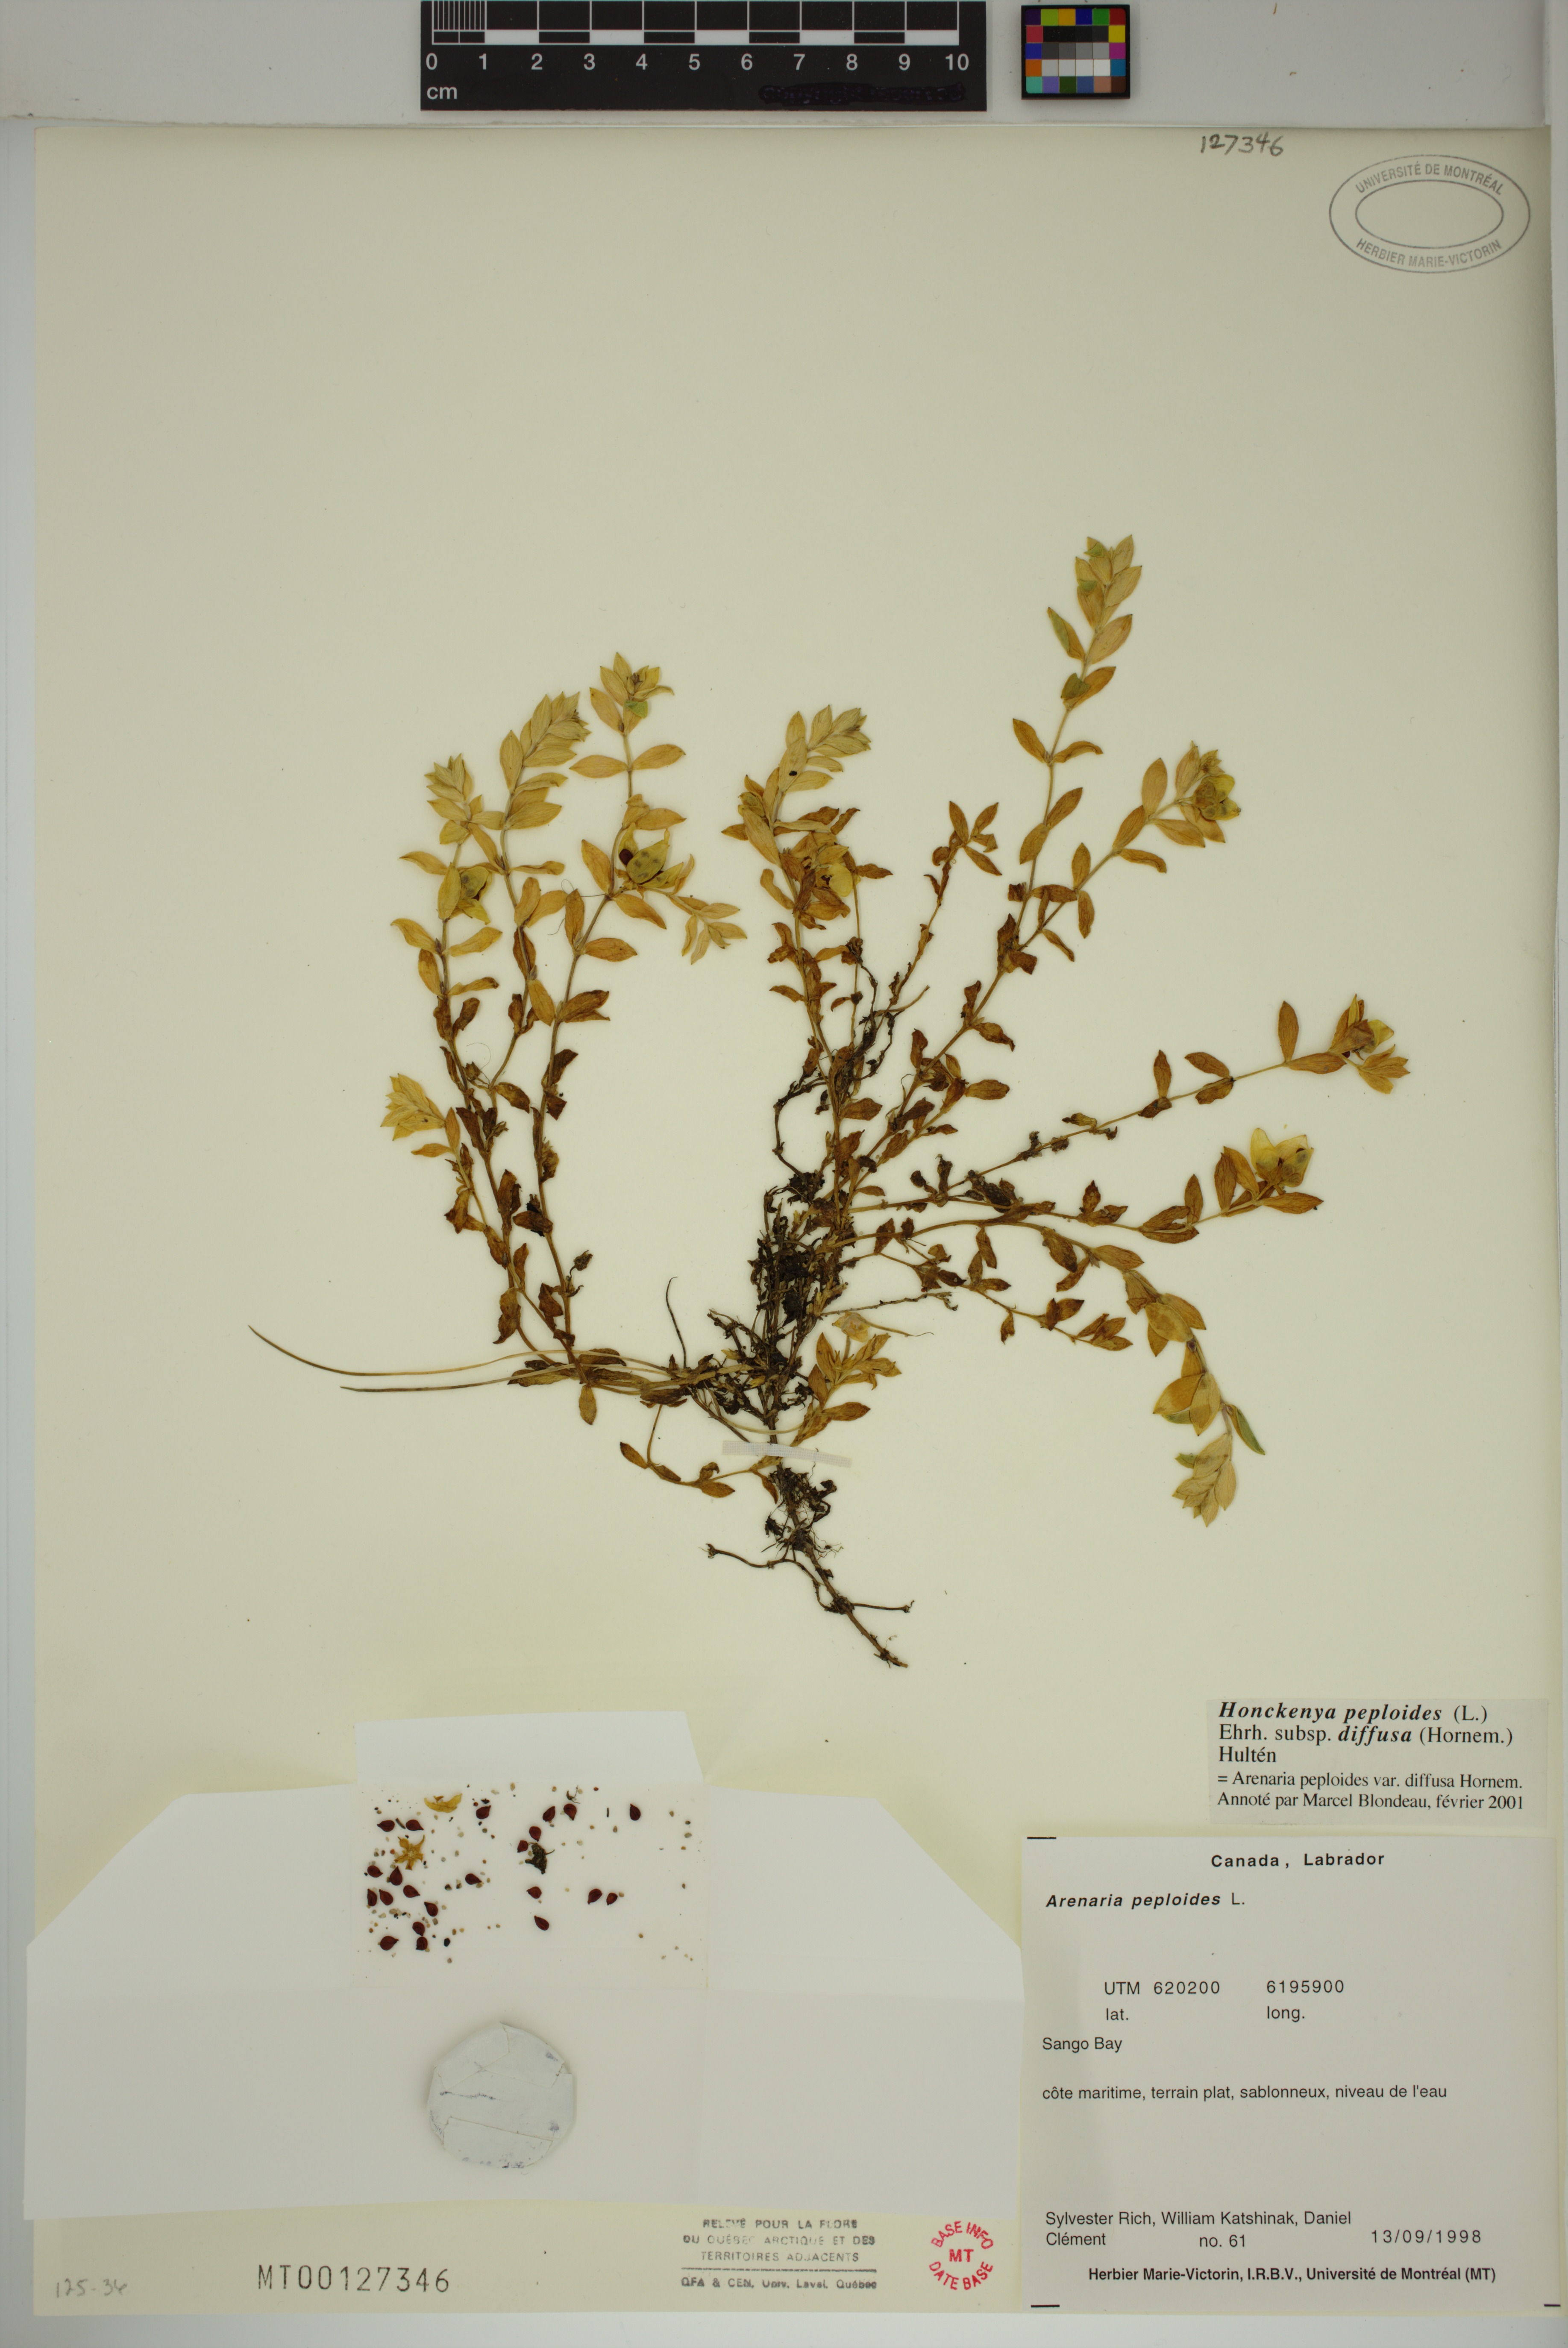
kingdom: Plantae
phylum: Tracheophyta
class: Magnoliopsida
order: Caryophyllales
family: Caryophyllaceae
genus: Honckenya
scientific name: Honckenya peploides
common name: Sea sandwort
